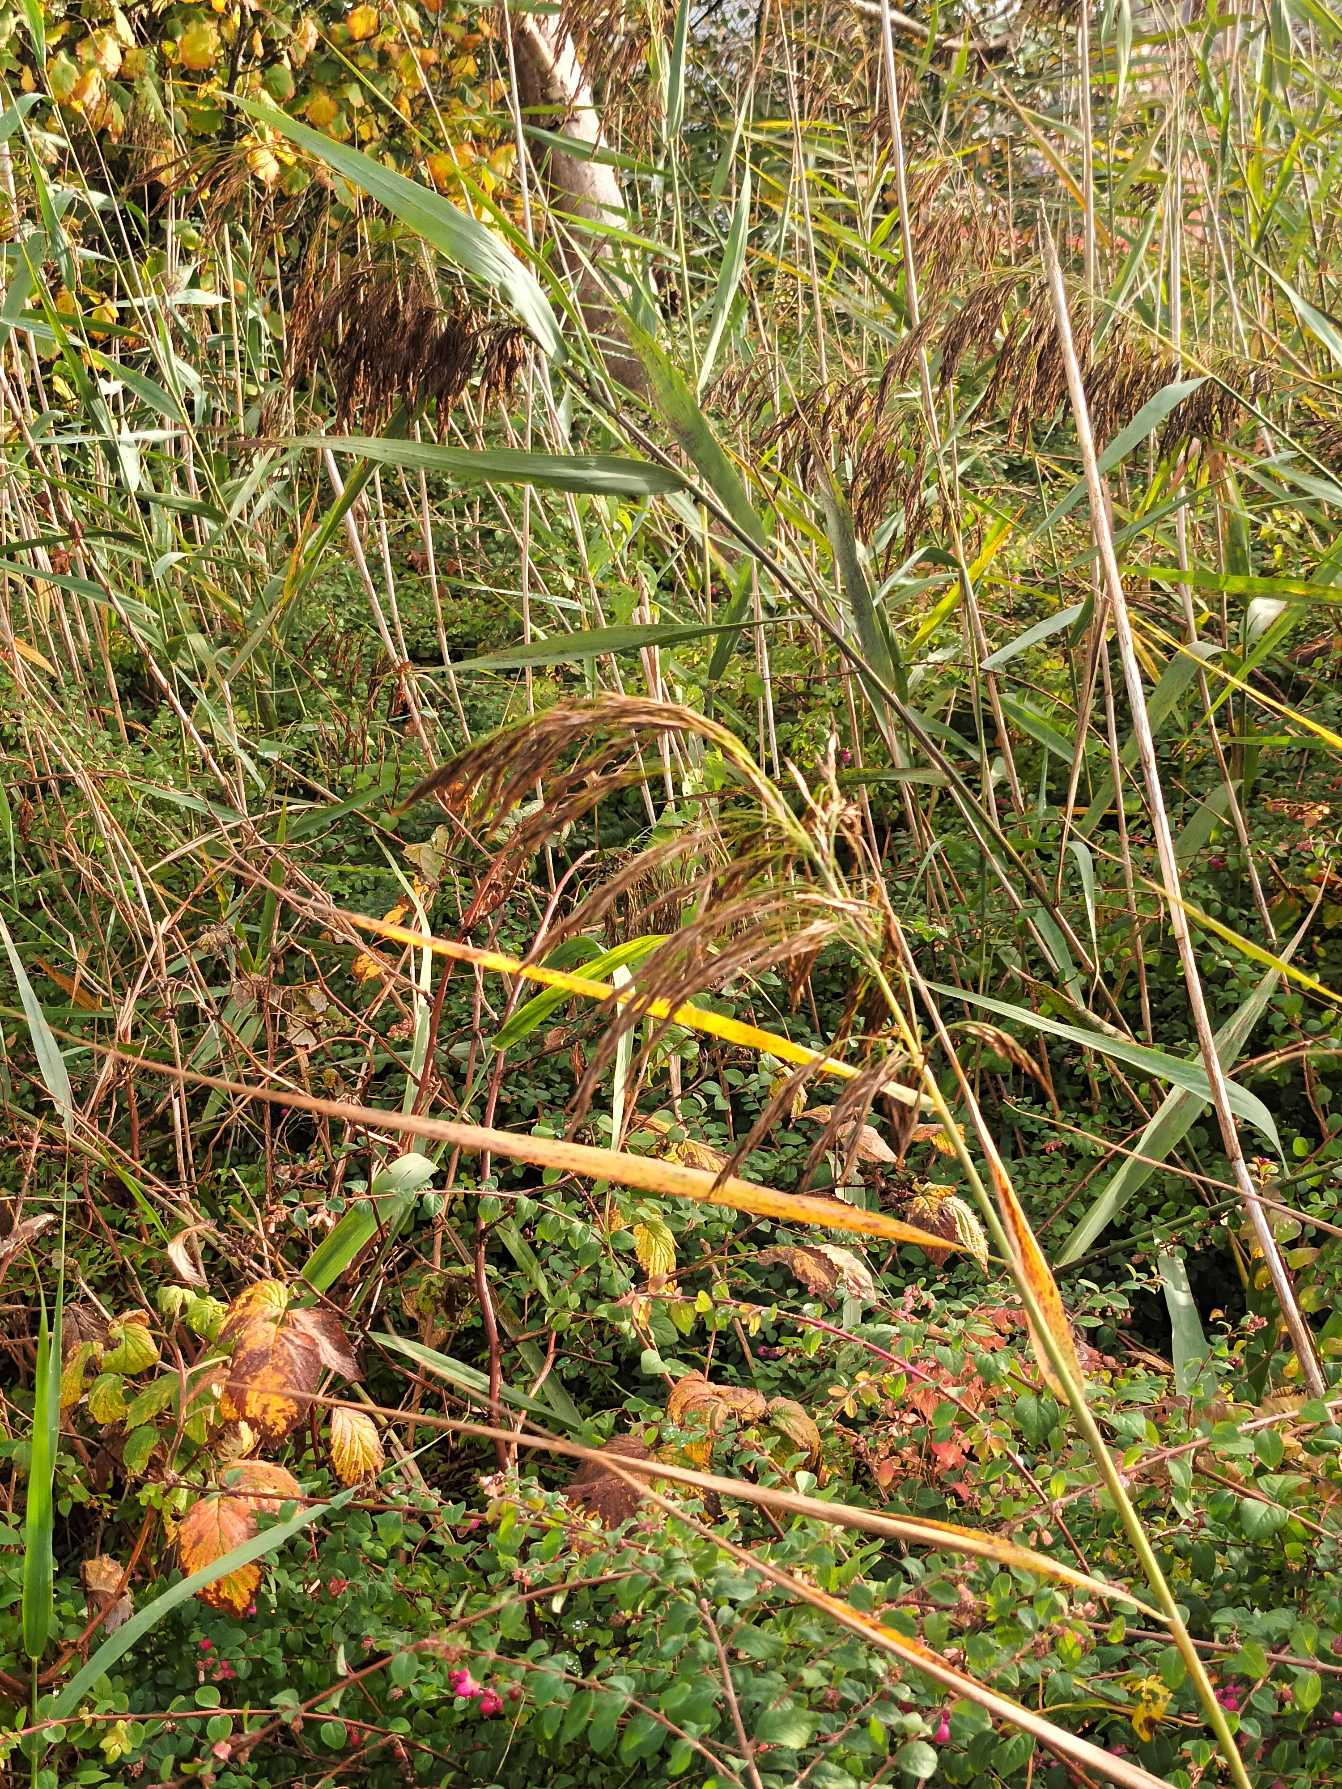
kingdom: Plantae
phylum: Tracheophyta
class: Liliopsida
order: Poales
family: Poaceae
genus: Phragmites
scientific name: Phragmites australis
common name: Tagrør
